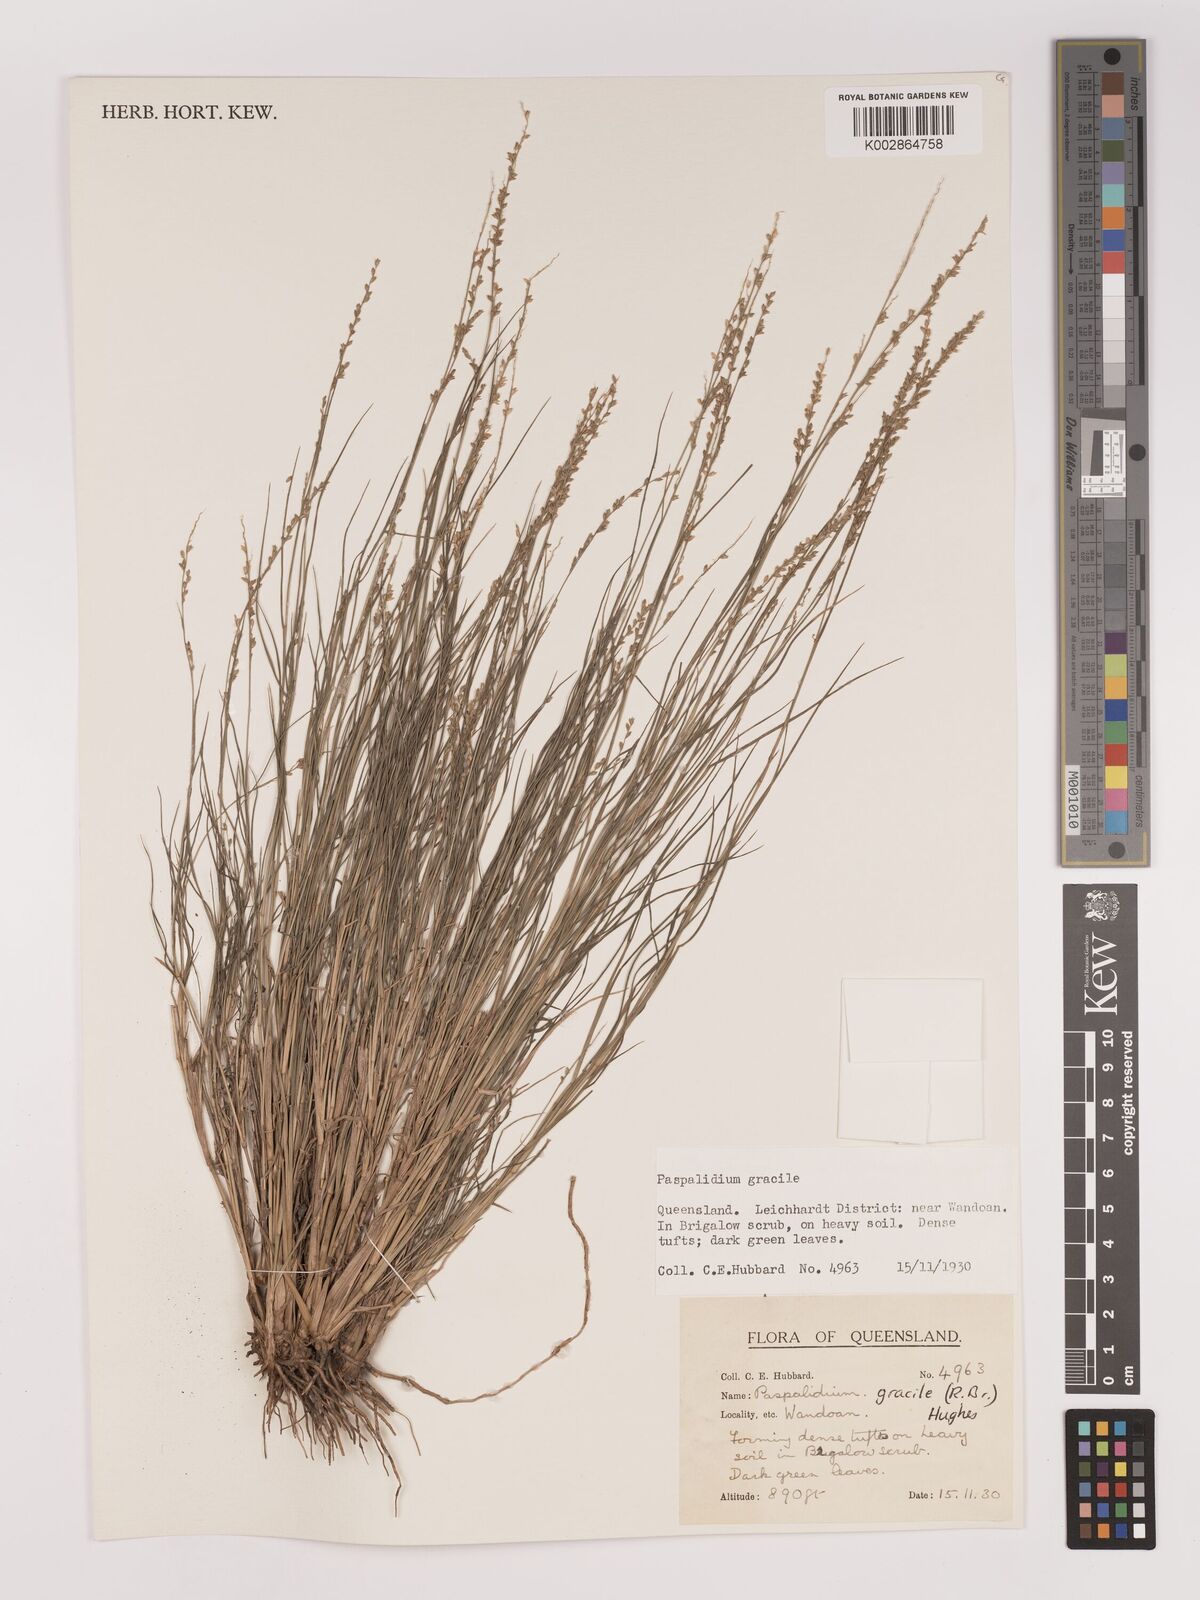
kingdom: Plantae
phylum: Tracheophyta
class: Liliopsida
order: Poales
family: Poaceae
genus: Setaria
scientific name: Setaria brownii
